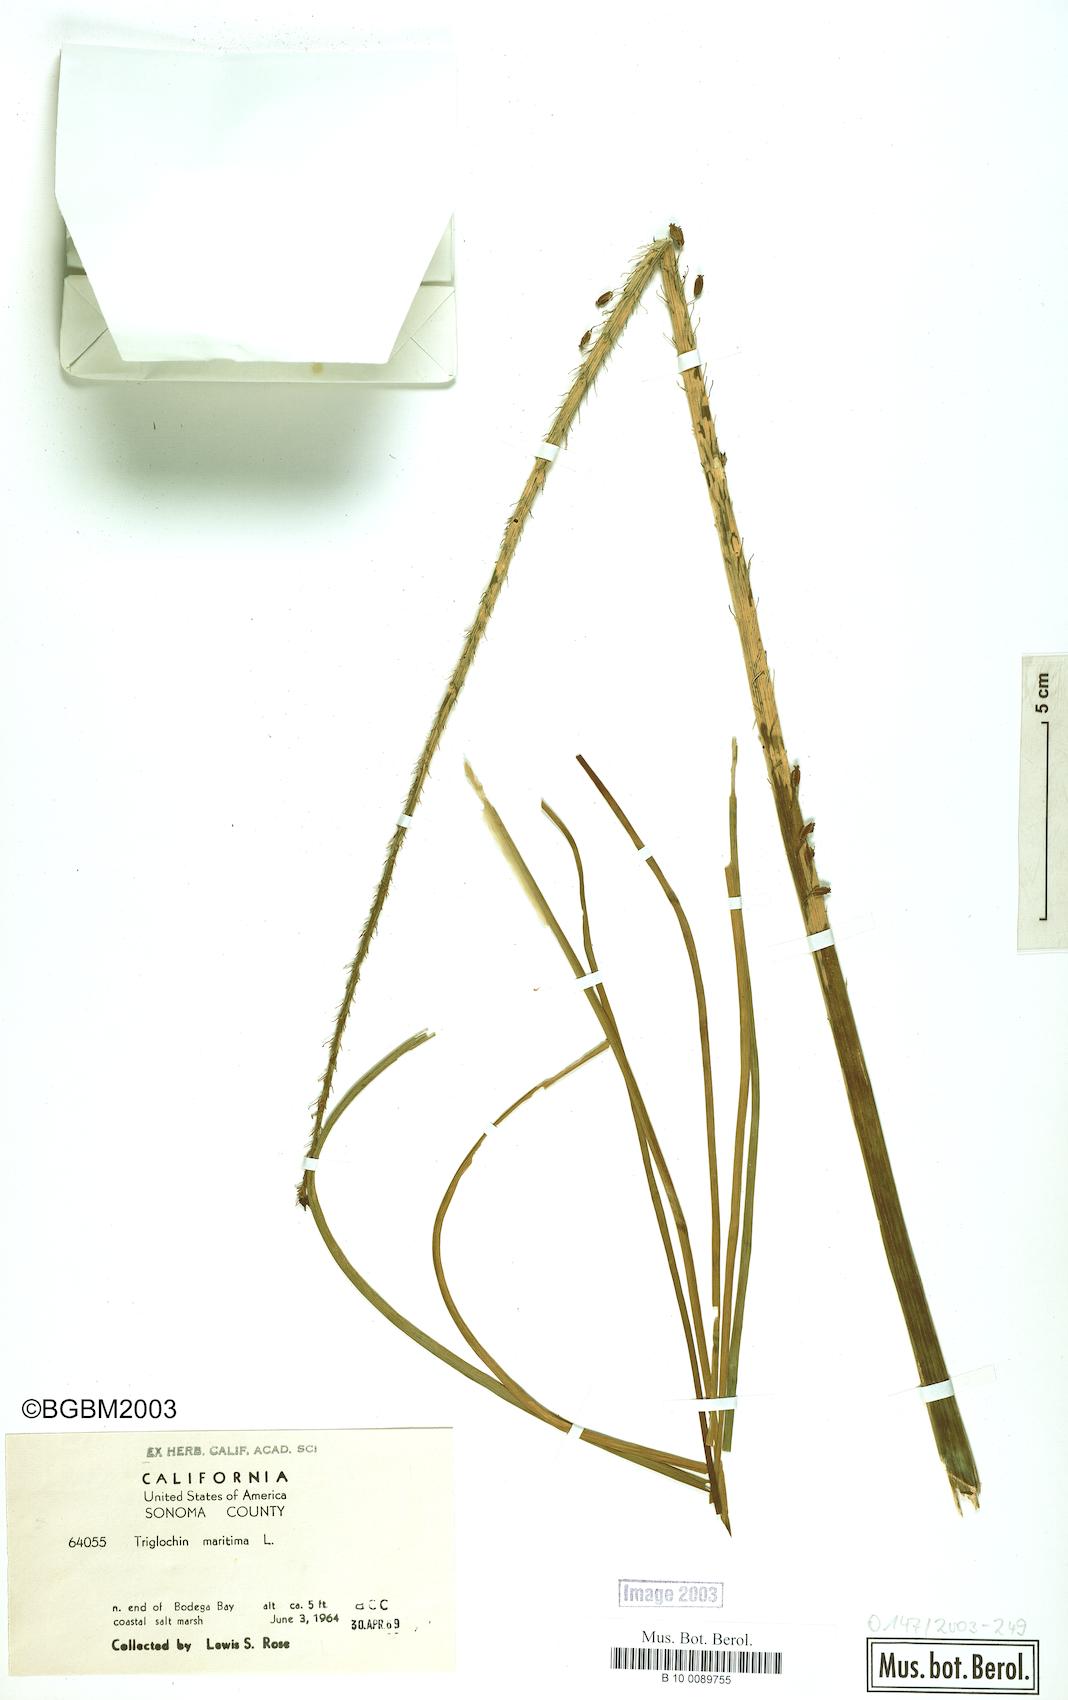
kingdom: Plantae
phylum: Tracheophyta
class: Liliopsida
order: Alismatales
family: Juncaginaceae
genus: Triglochin
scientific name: Triglochin maritima
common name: Sea arrowgrass
